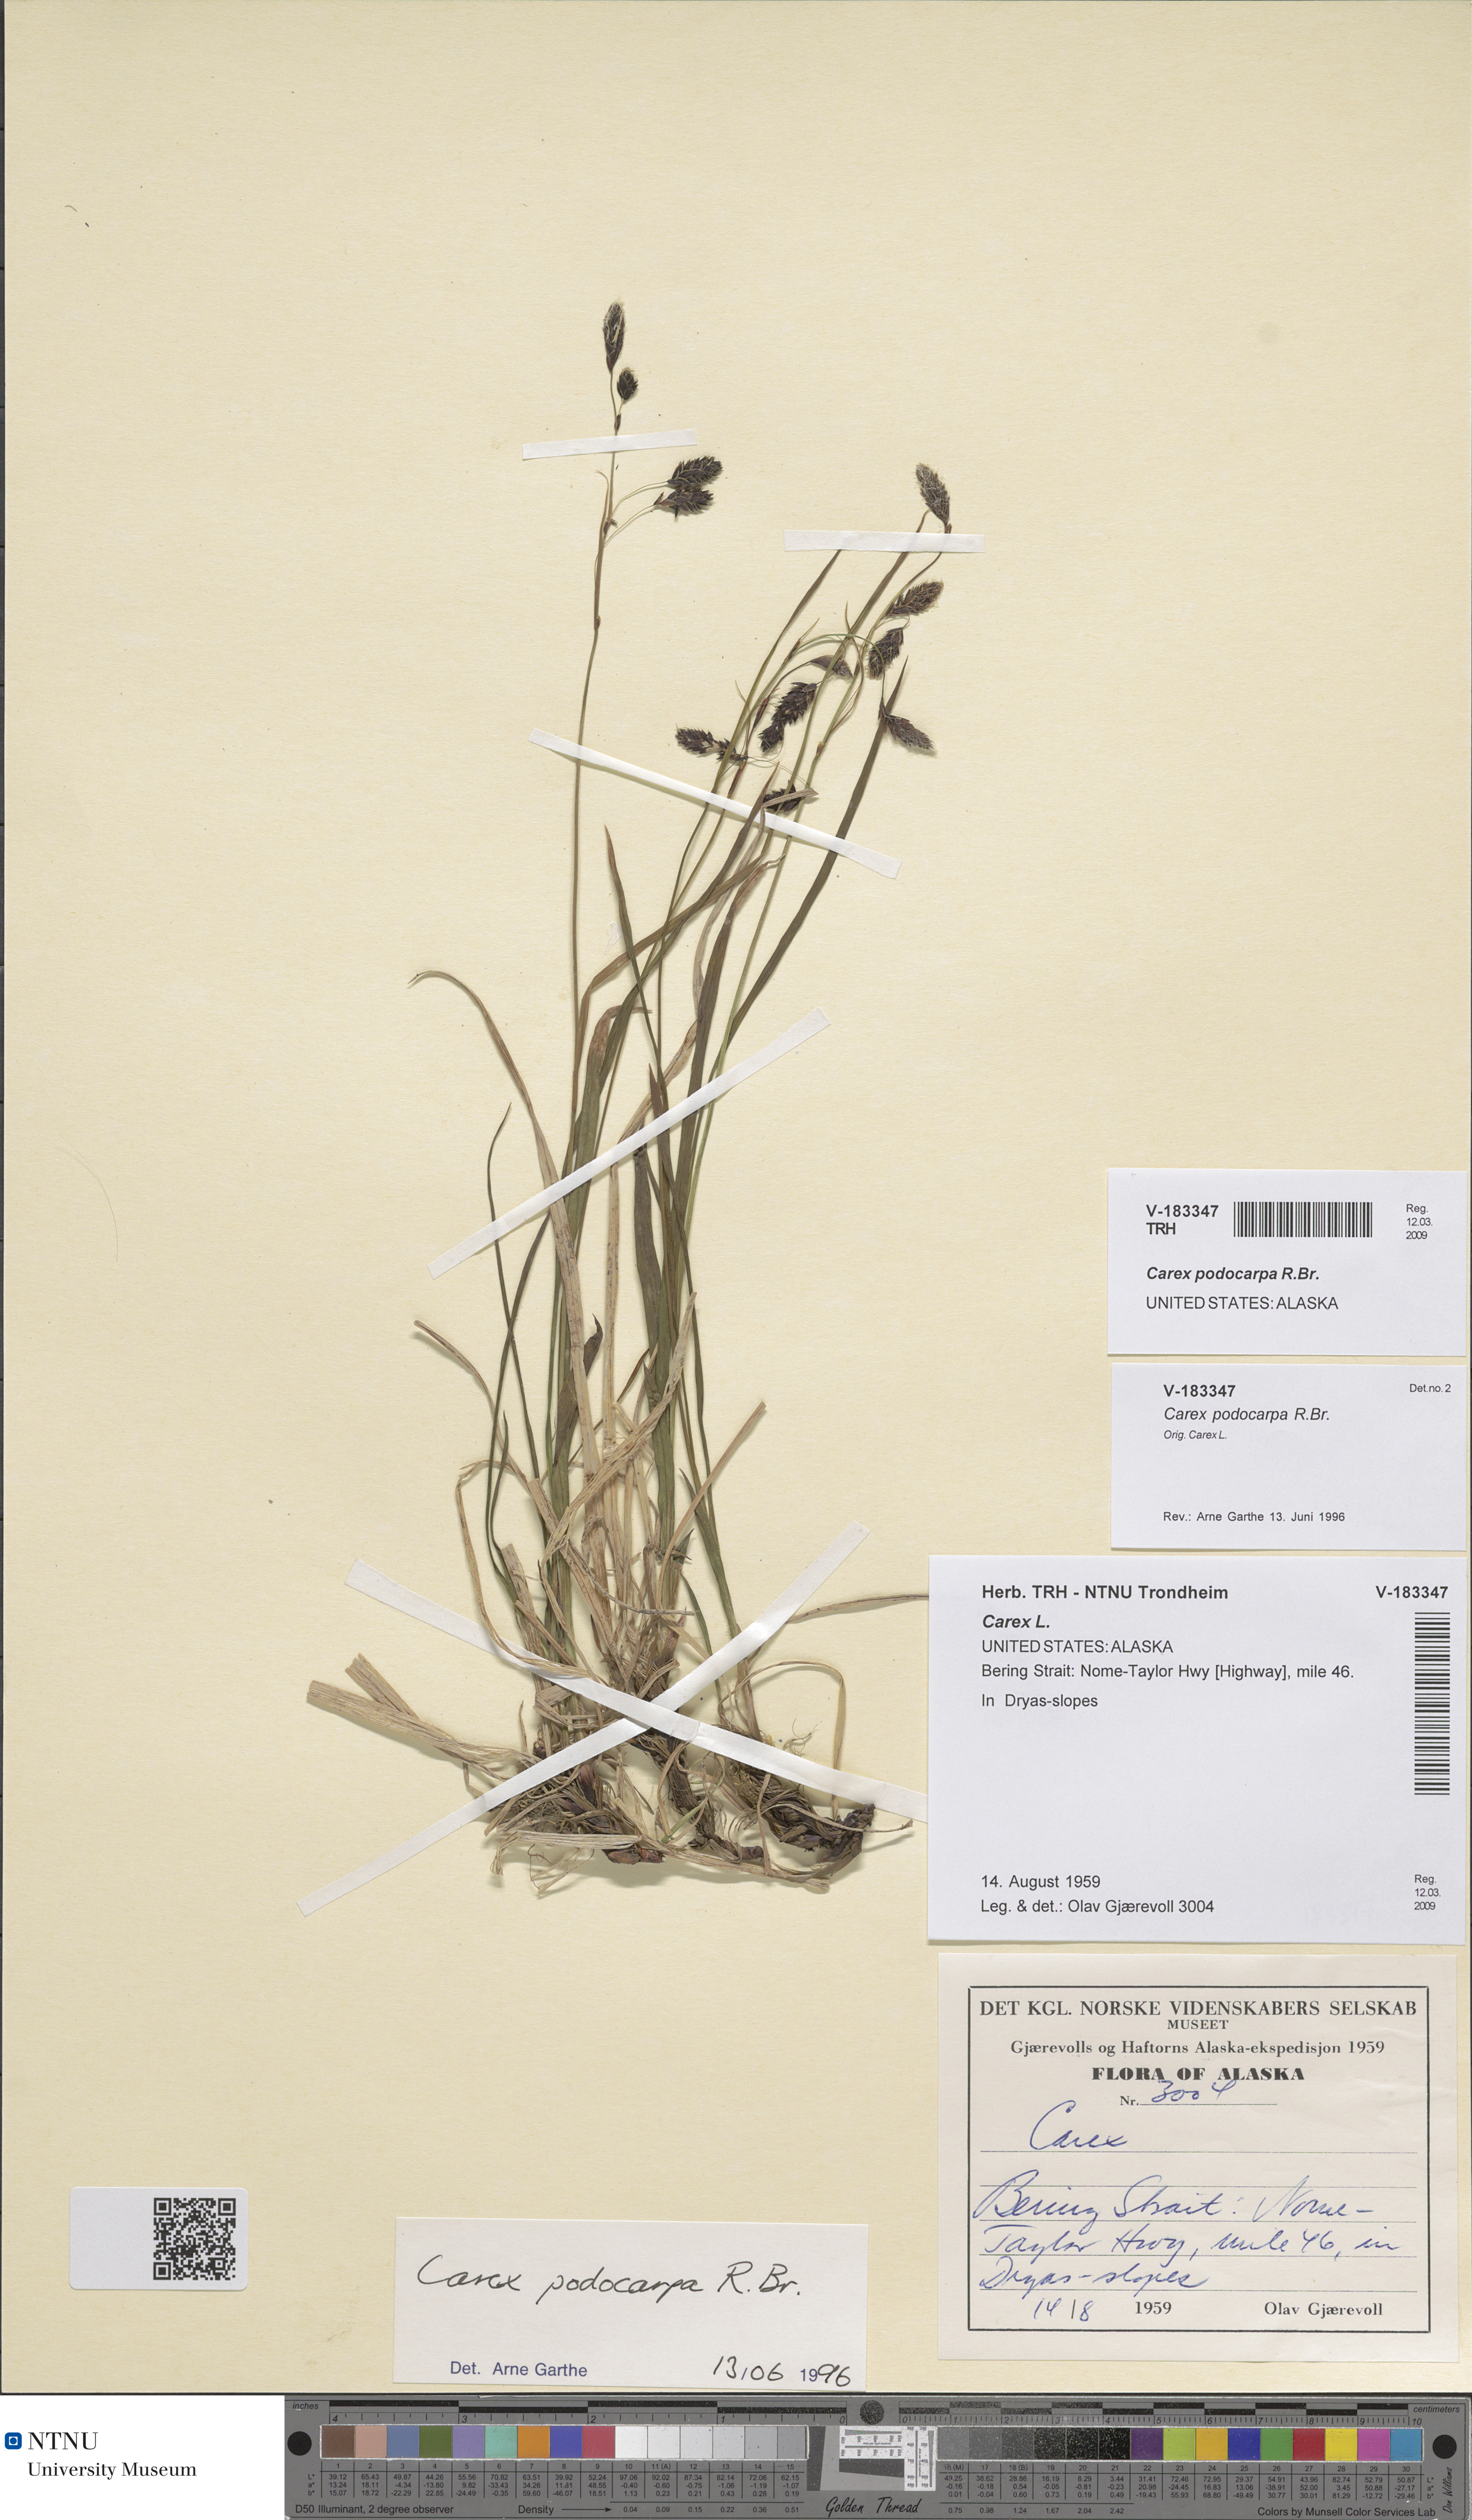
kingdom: Plantae
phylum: Tracheophyta
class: Liliopsida
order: Poales
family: Cyperaceae
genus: Carex
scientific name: Carex podocarpa
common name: Alpine sedge
